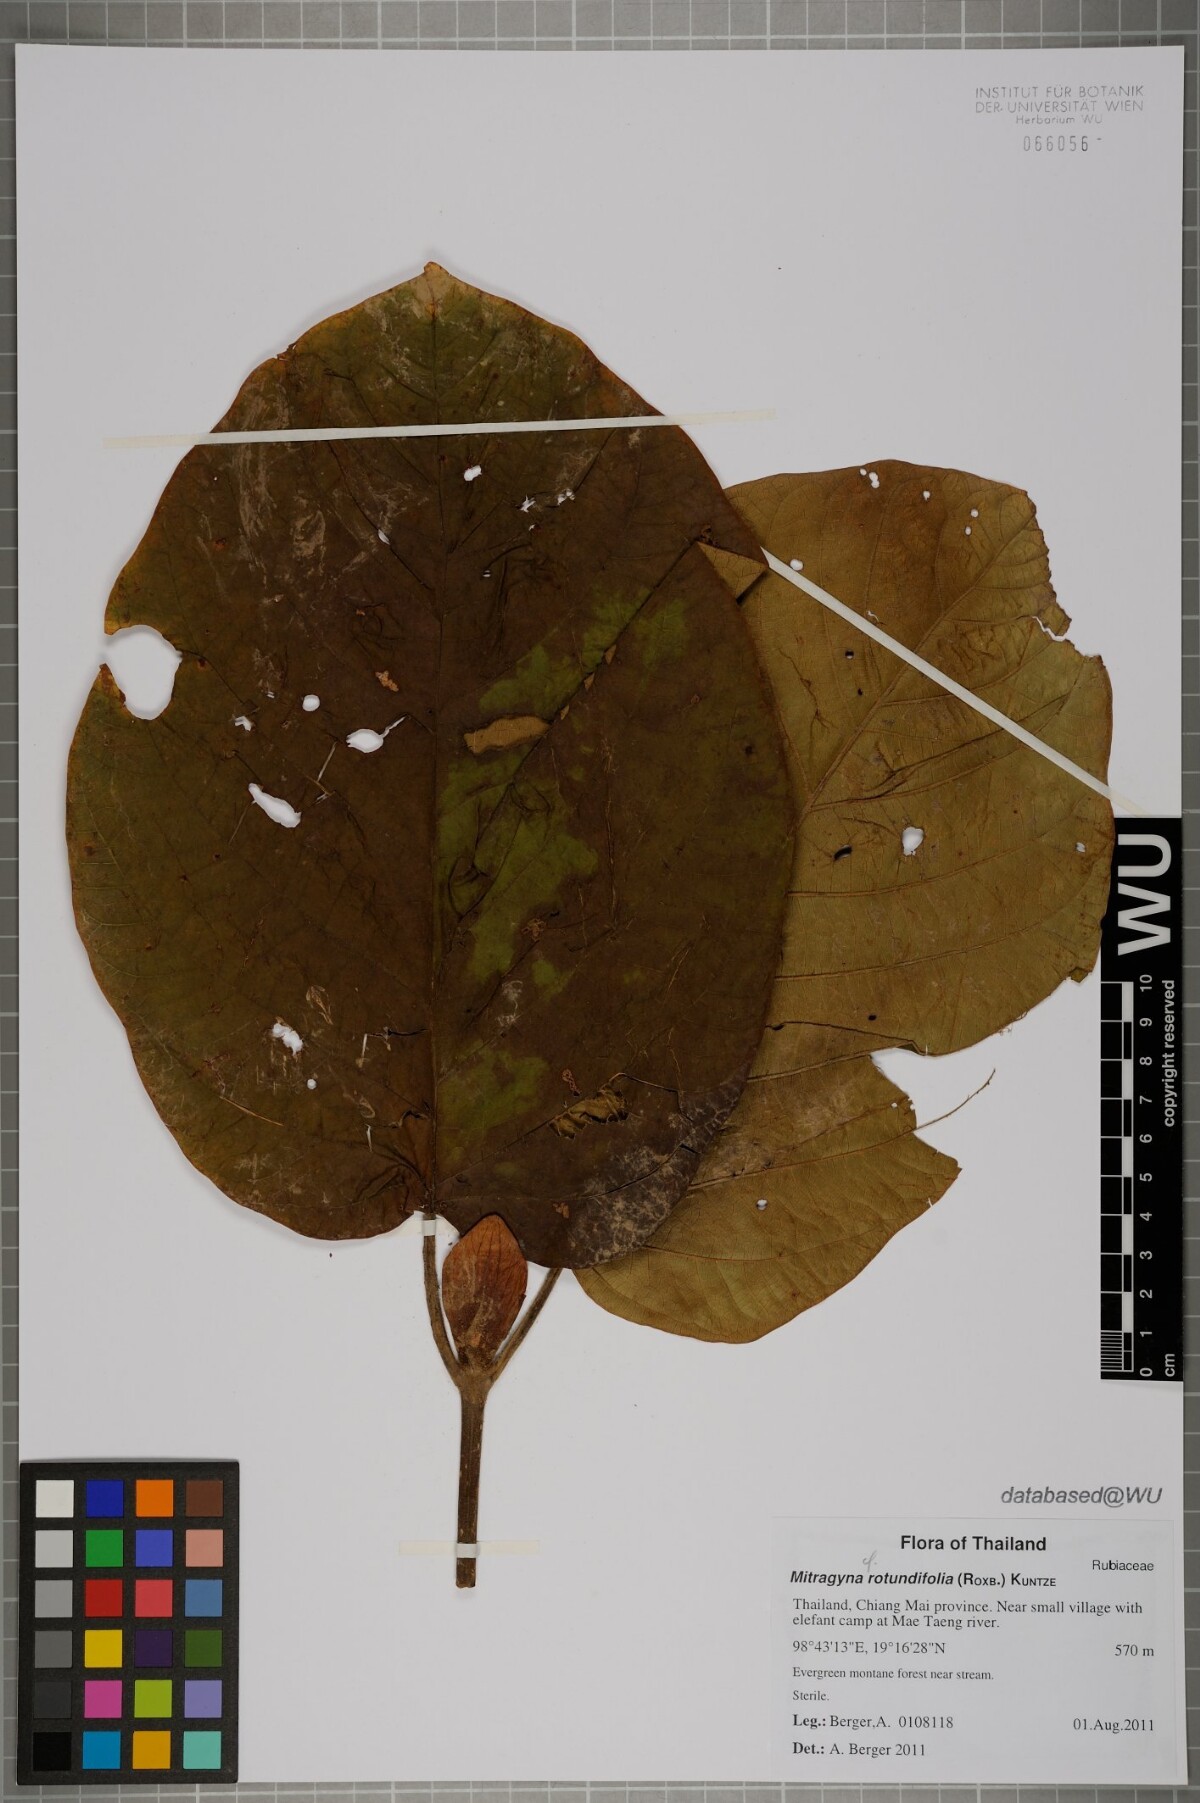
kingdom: Plantae
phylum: Tracheophyta
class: Magnoliopsida
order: Gentianales
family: Rubiaceae
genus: Mitragyna
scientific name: Mitragyna rotundifolia
